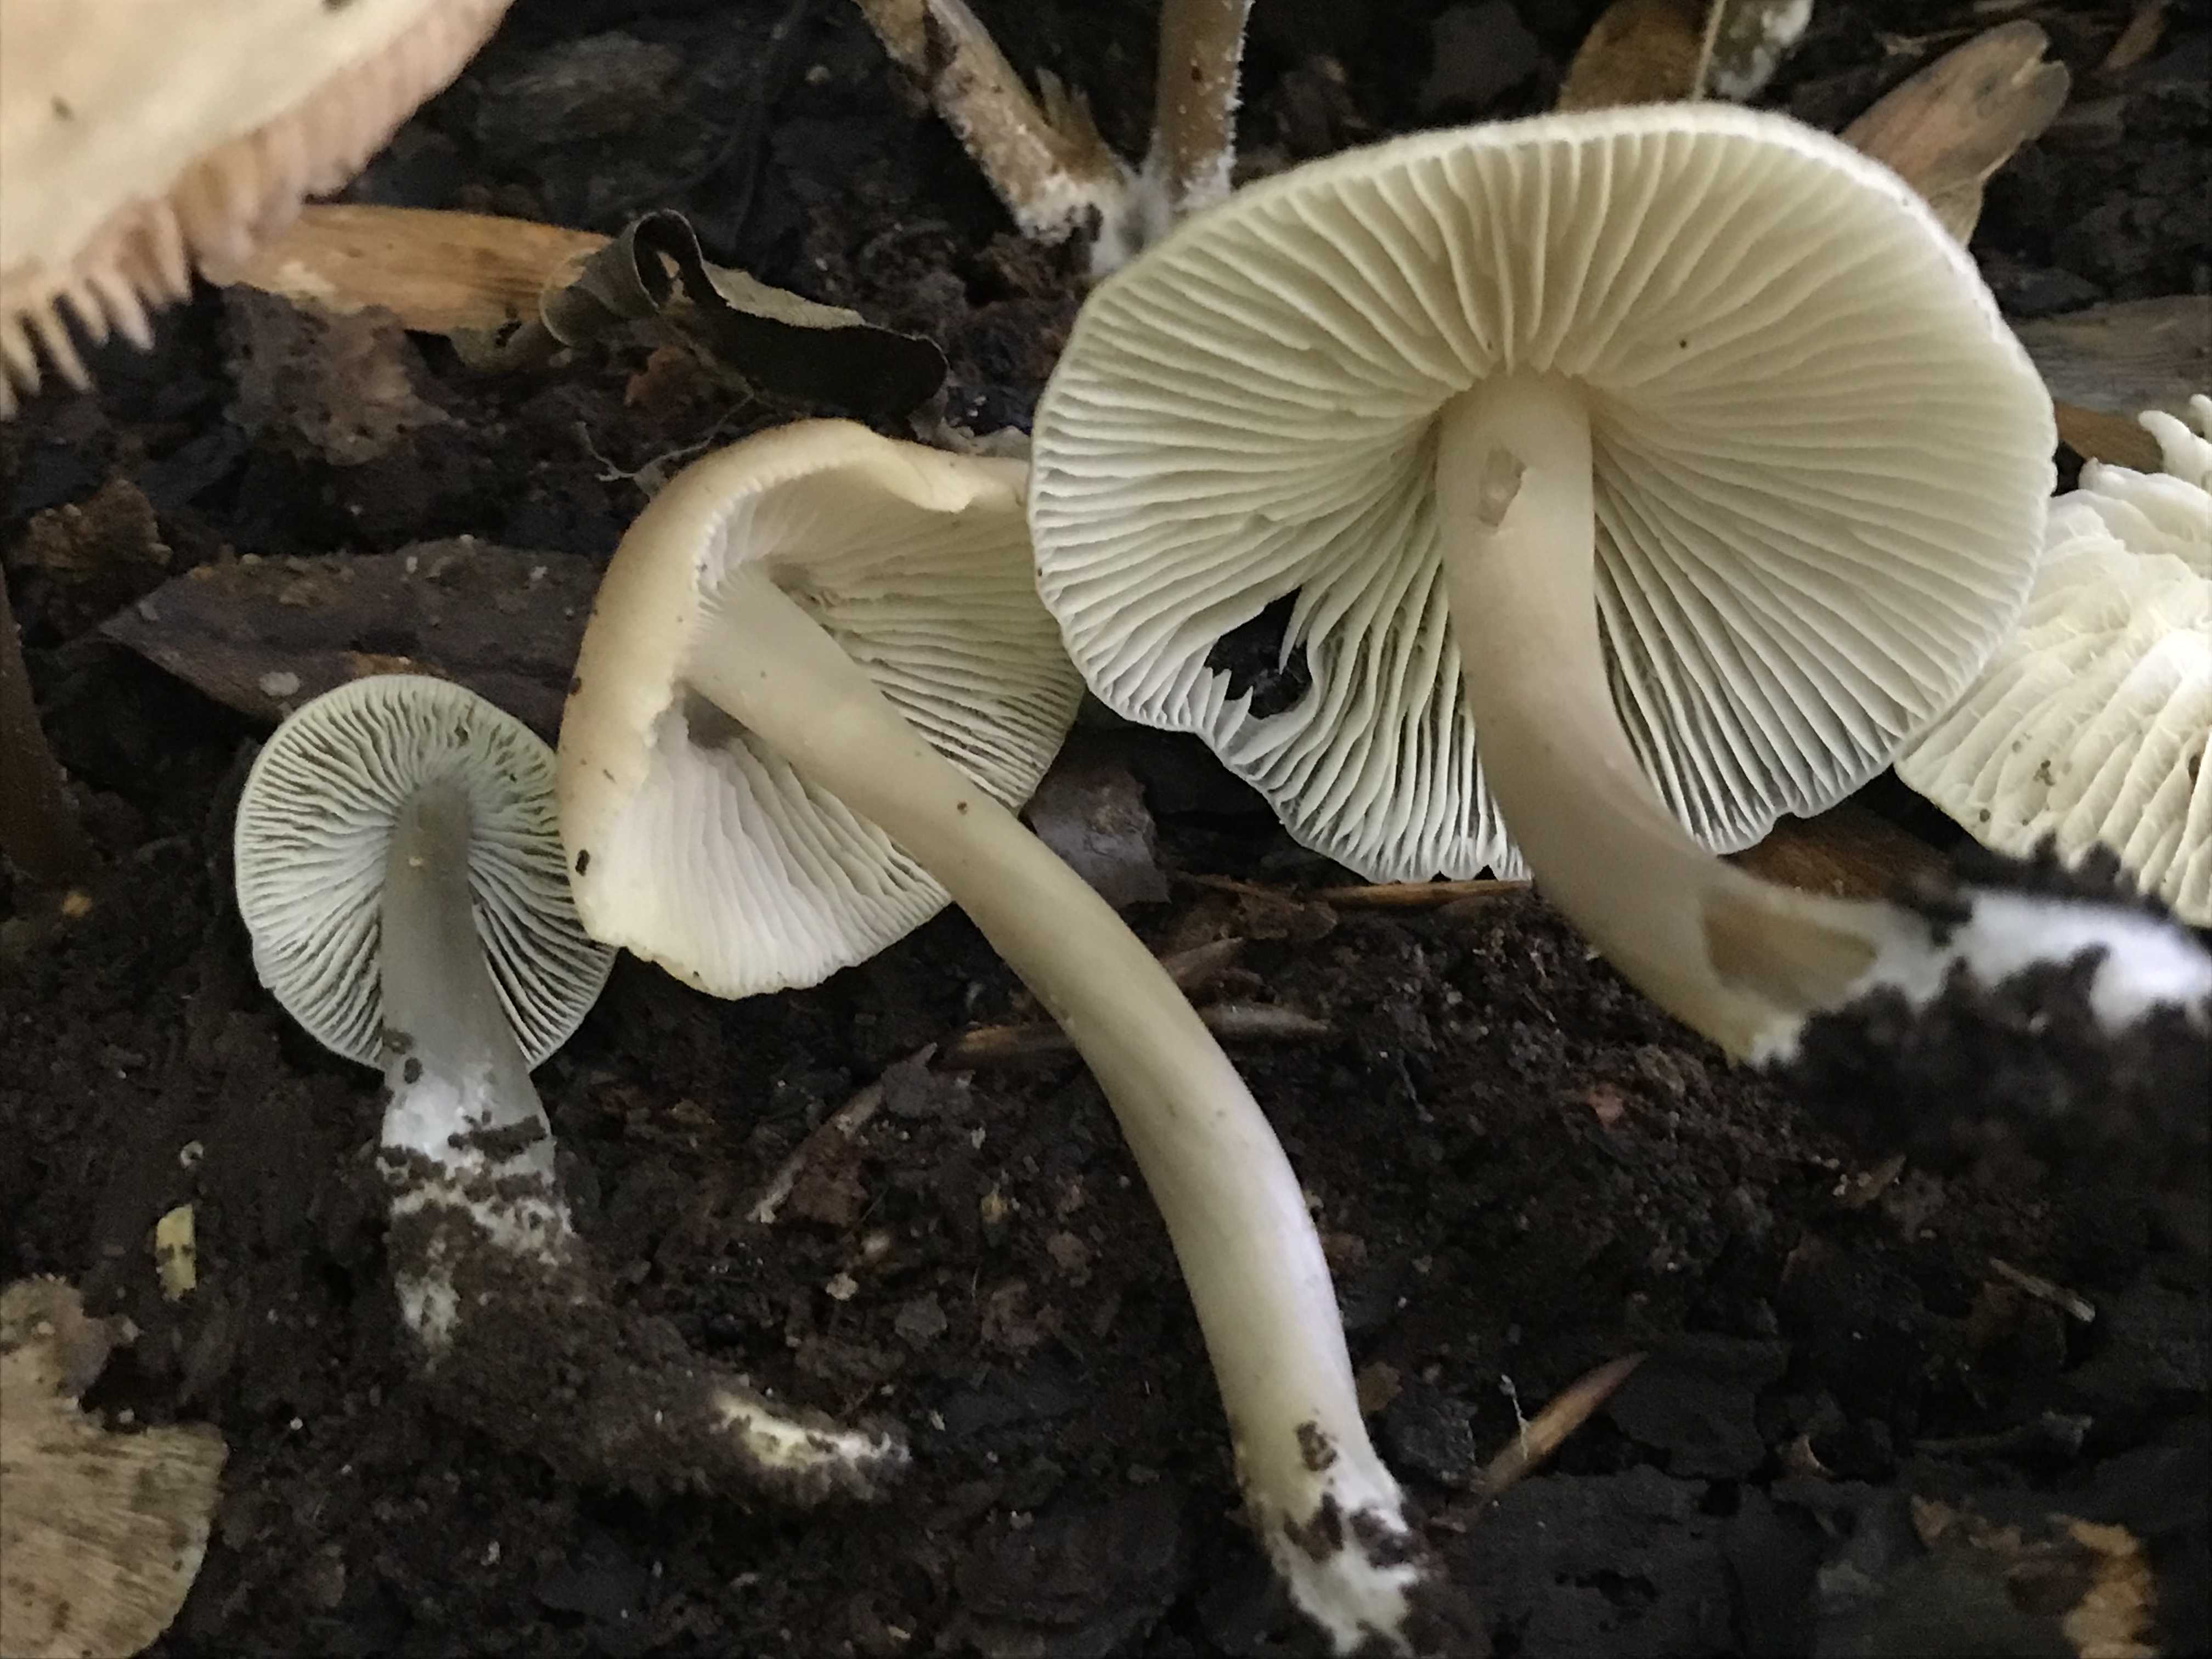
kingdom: Fungi
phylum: Basidiomycota
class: Agaricomycetes
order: Agaricales
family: Mycenaceae
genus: Mycena
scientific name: Mycena galericulata
